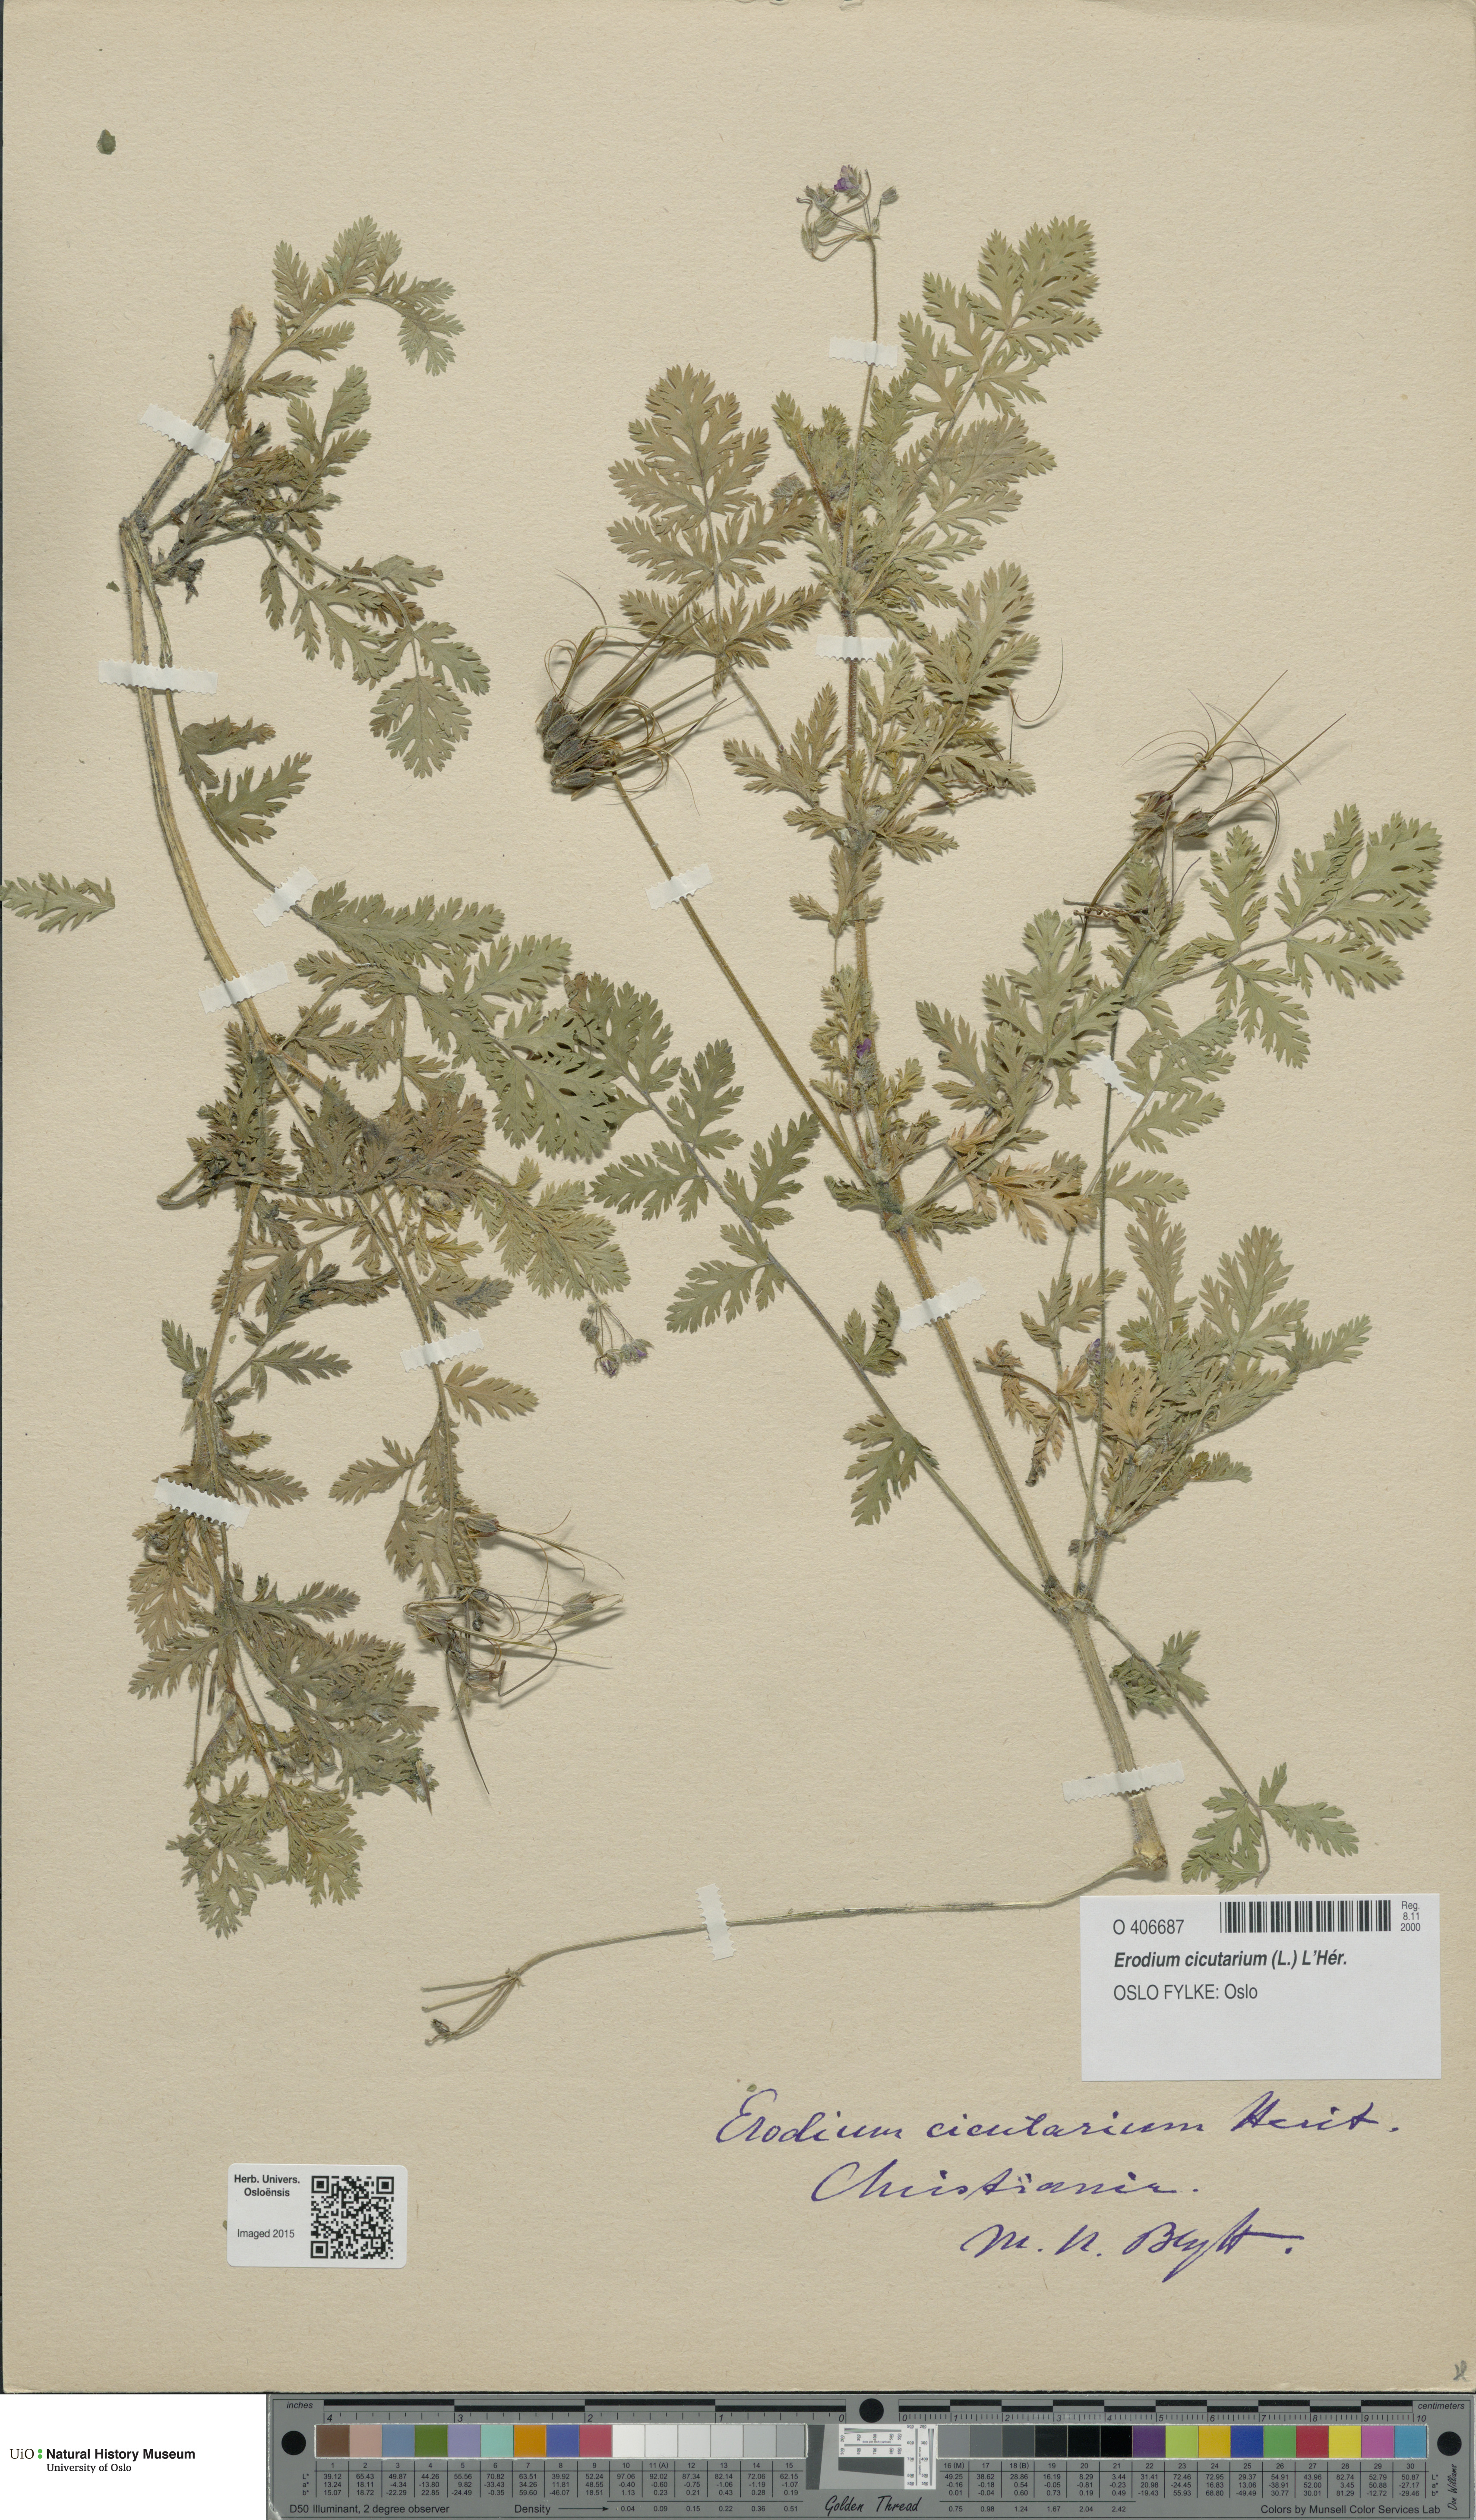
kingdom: Plantae
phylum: Tracheophyta
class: Magnoliopsida
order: Geraniales
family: Geraniaceae
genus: Erodium
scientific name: Erodium cicutarium
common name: Common stork's-bill
